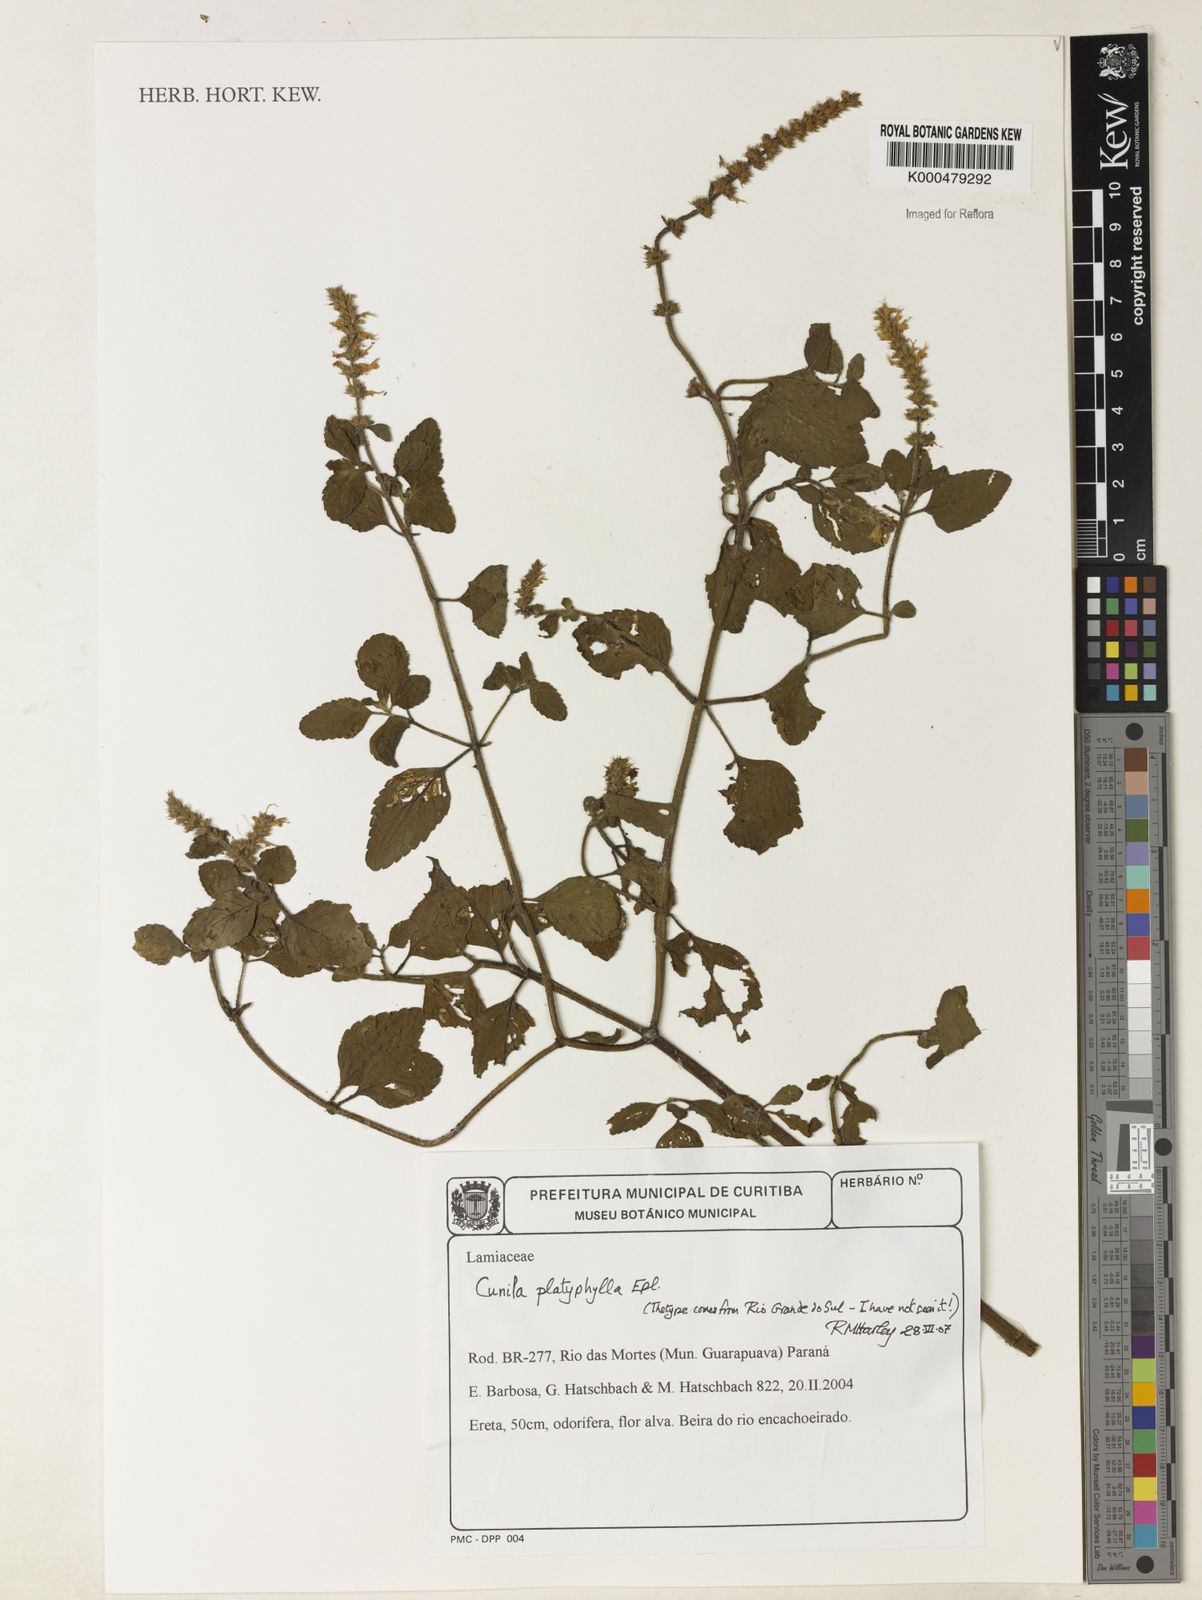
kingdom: Plantae
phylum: Tracheophyta
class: Magnoliopsida
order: Lamiales
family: Lamiaceae
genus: Cunila
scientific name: Cunila platyphylla
